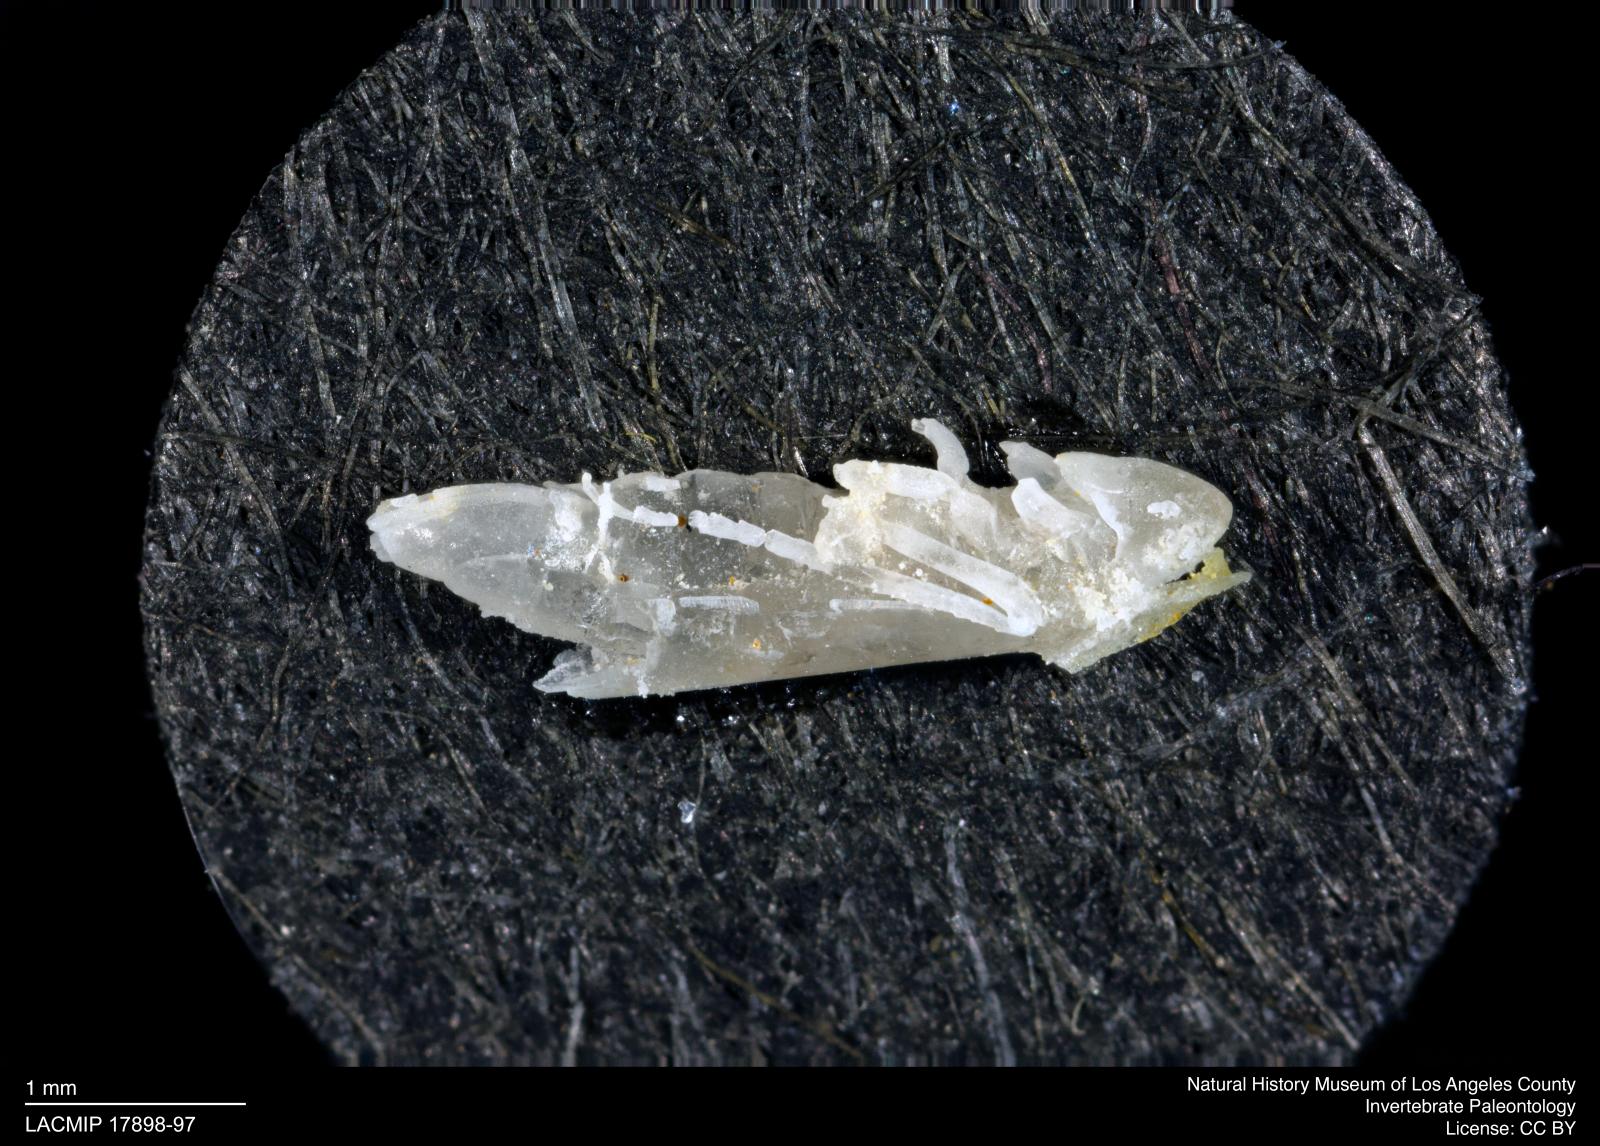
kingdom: Animalia
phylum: Arthropoda
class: Insecta
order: Hemiptera
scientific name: Hemiptera
